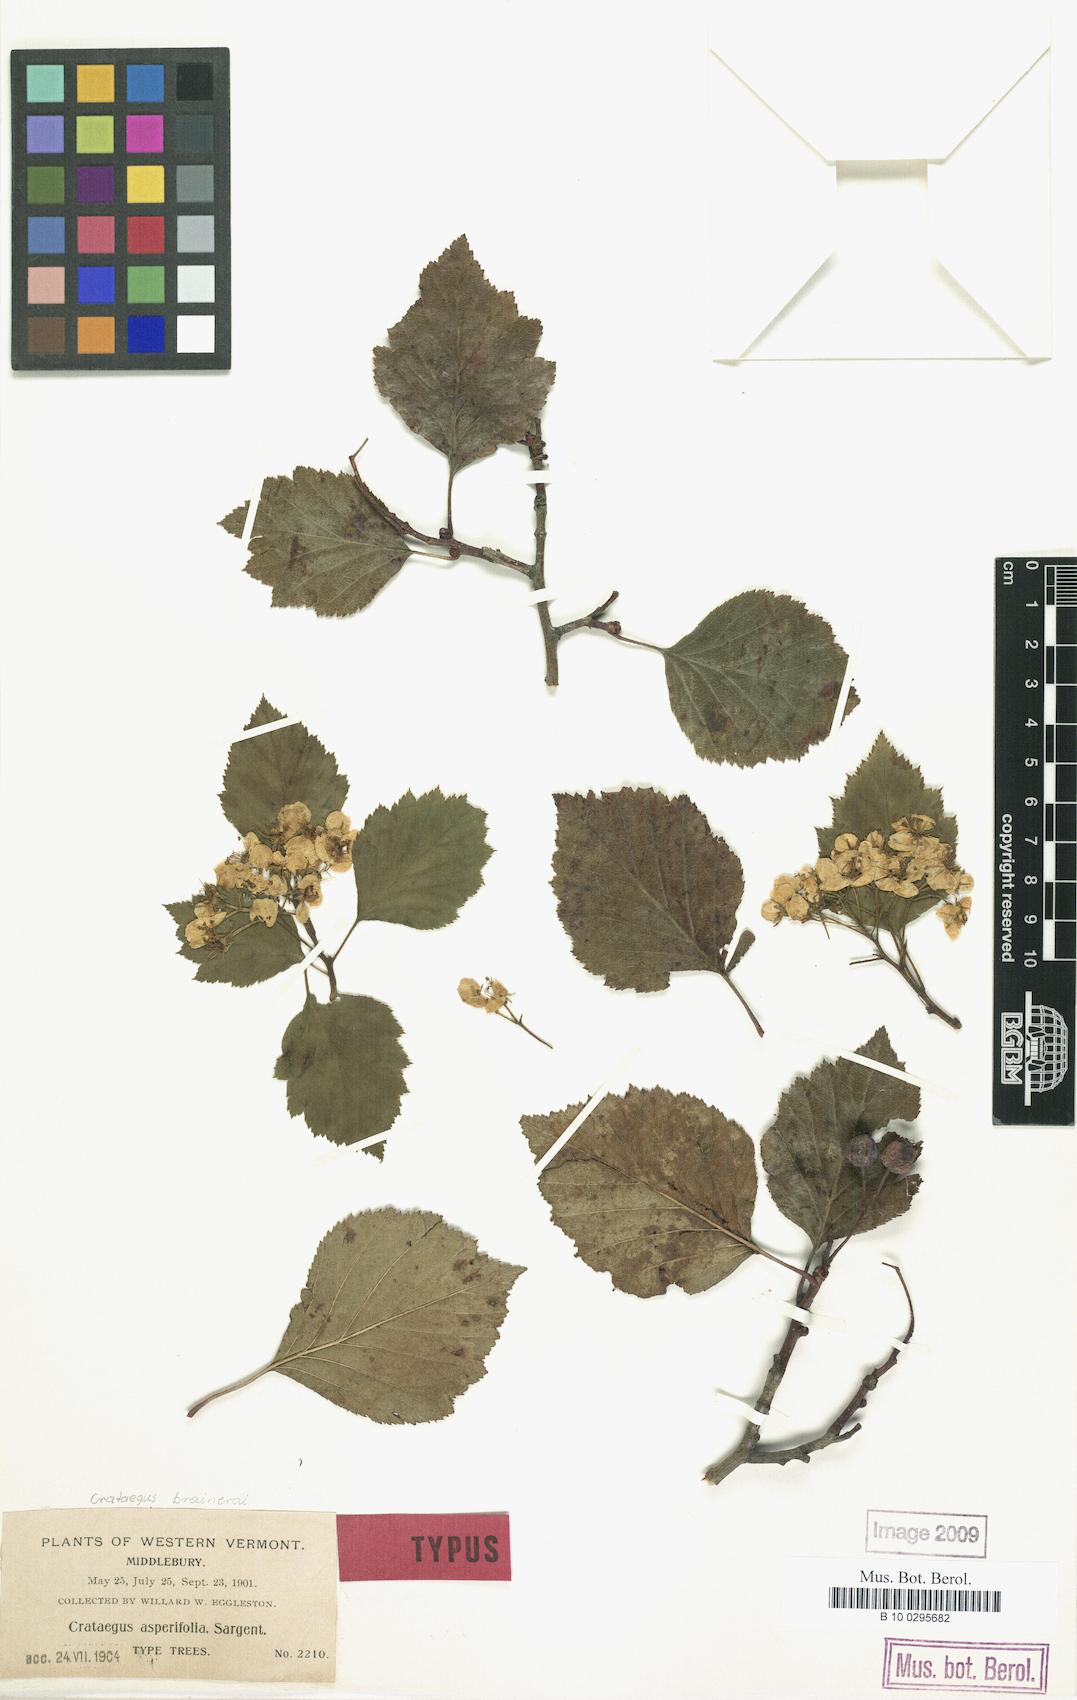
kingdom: Plantae
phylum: Tracheophyta
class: Magnoliopsida
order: Rosales
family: Rosaceae
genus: Crataegus
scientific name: Crataegus scabrida
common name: Rough hawthorn
